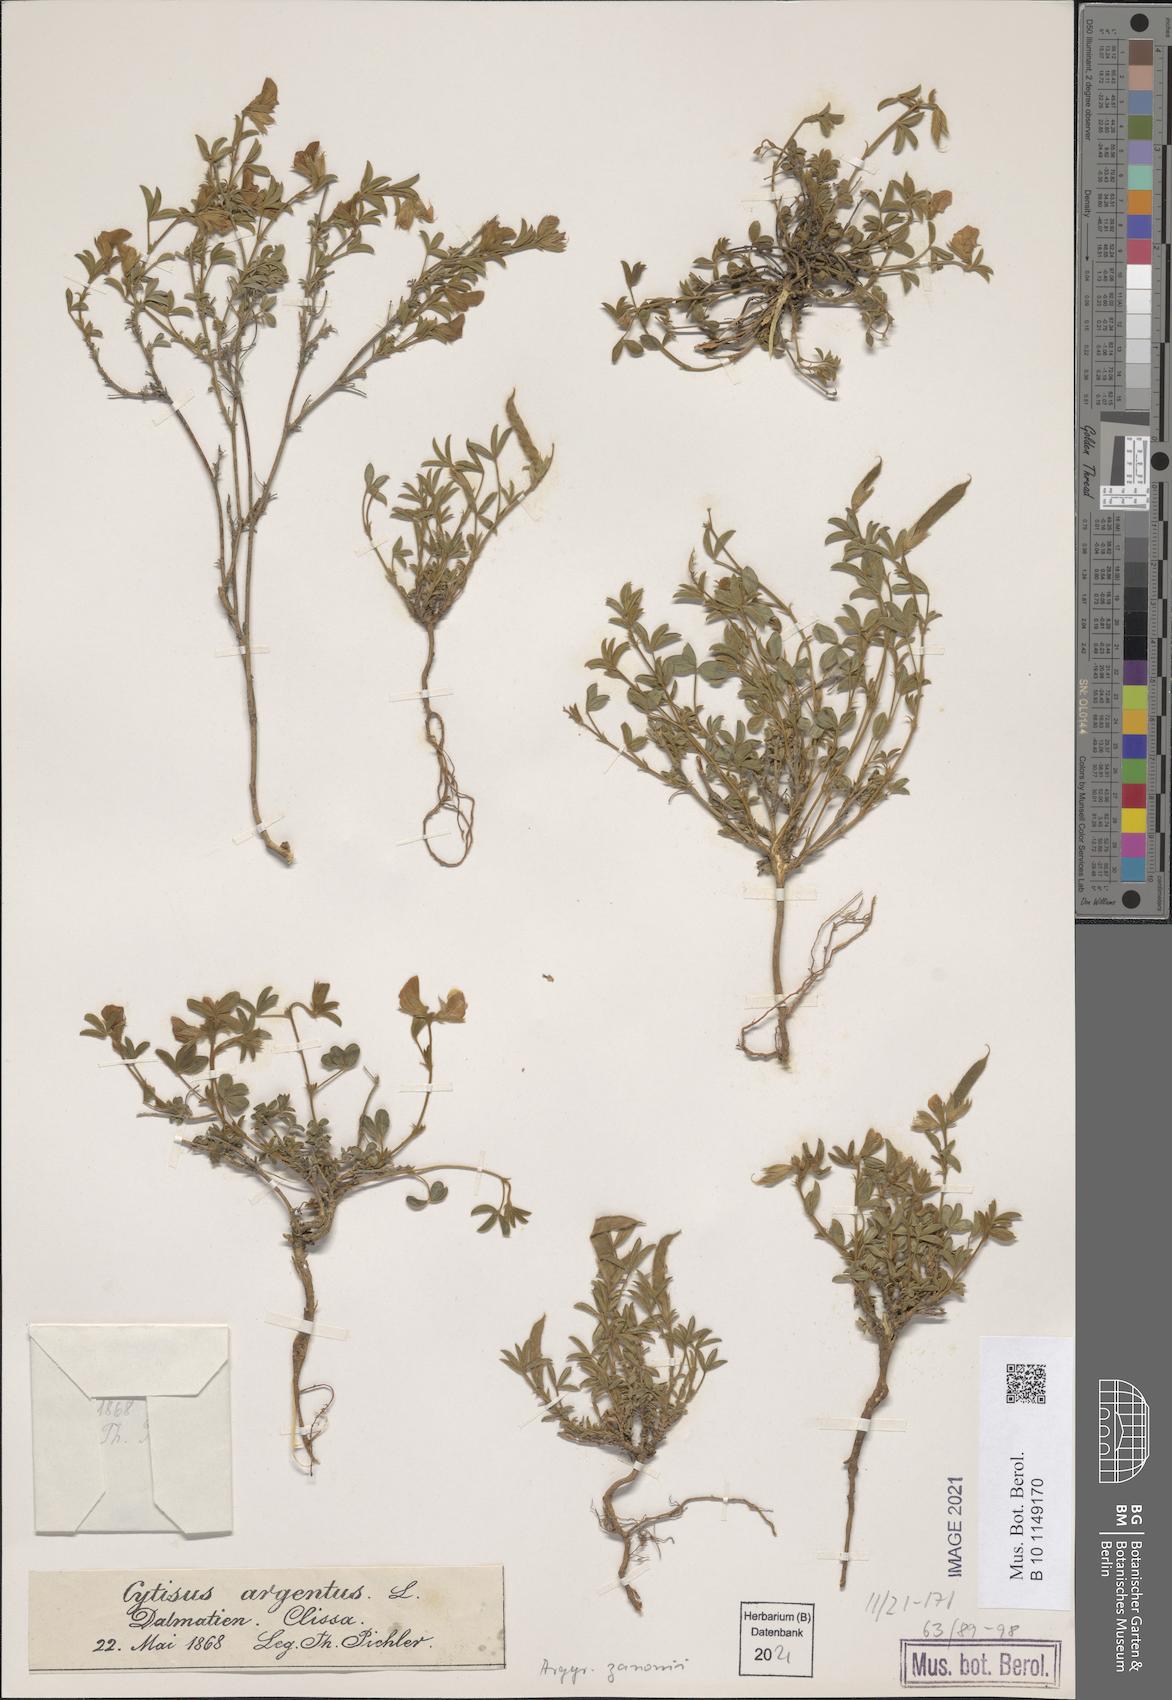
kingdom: Plantae
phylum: Tracheophyta
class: Magnoliopsida
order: Fabales
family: Fabaceae
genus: Argyrolobium
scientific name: Argyrolobium zanonii
